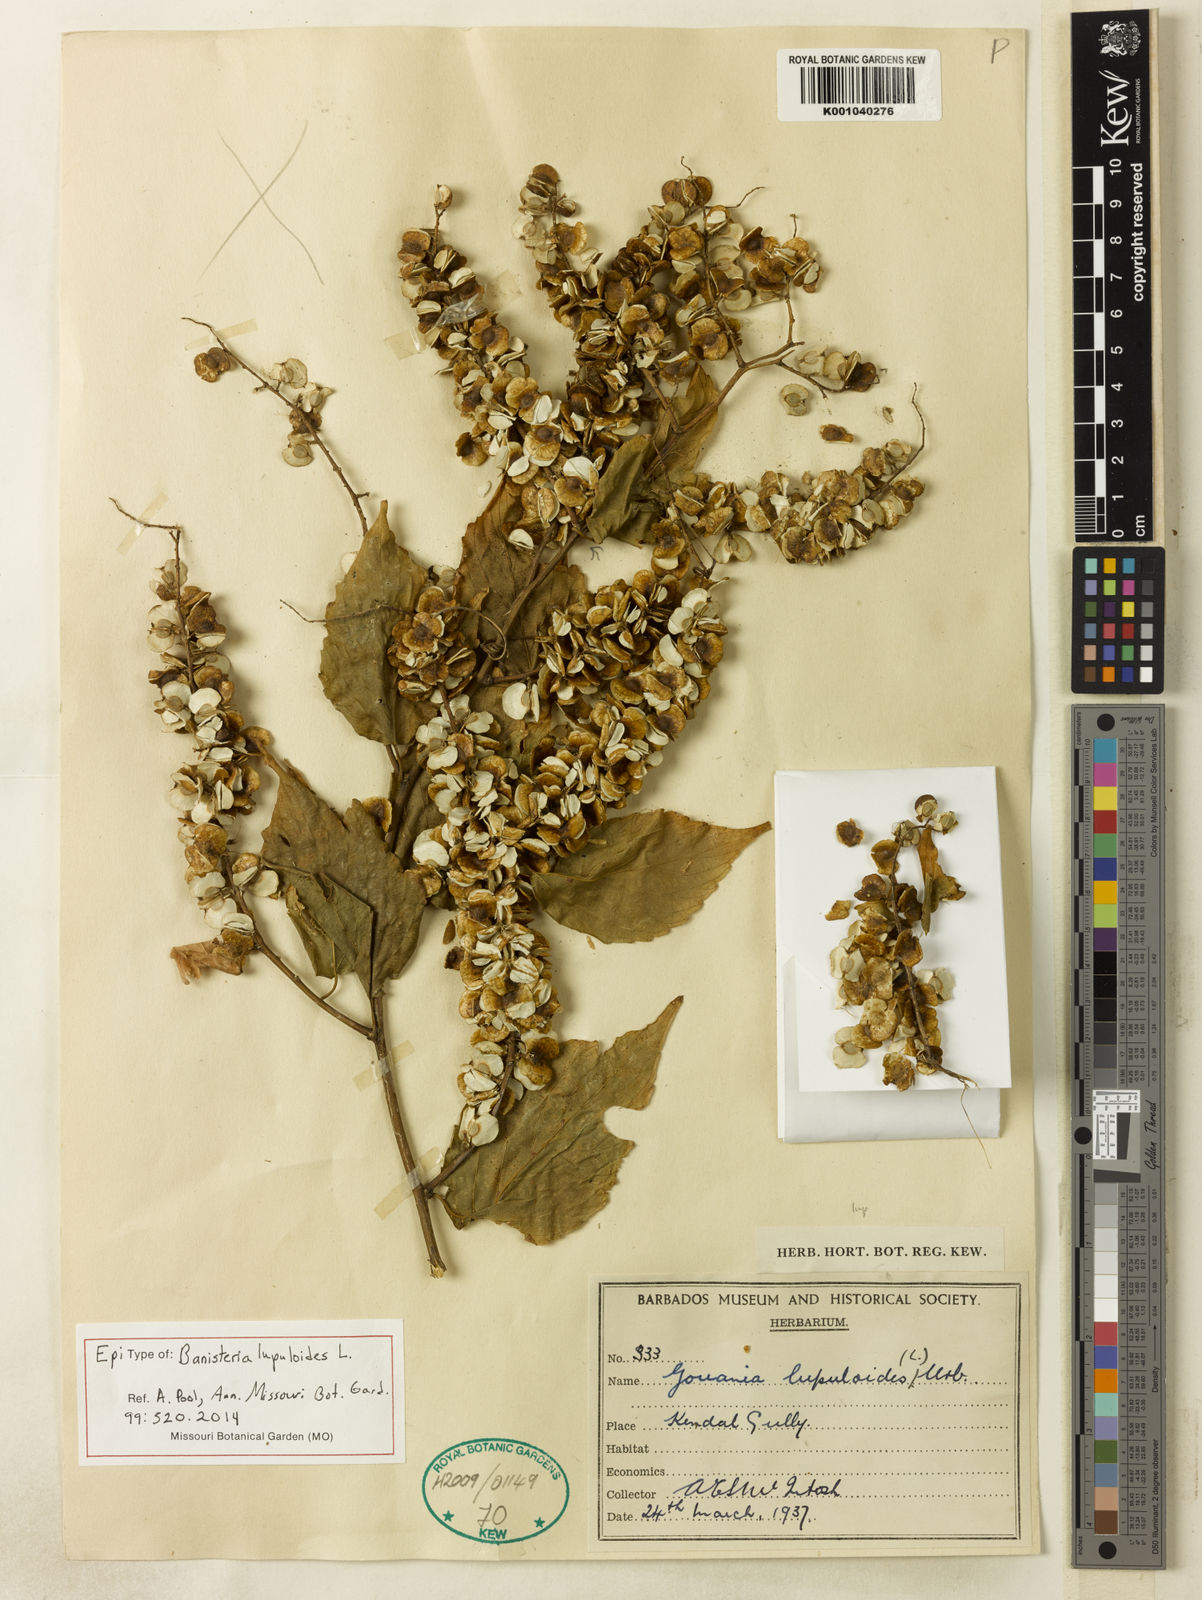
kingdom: Plantae
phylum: Tracheophyta
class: Magnoliopsida
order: Rosales
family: Rhamnaceae
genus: Gouania
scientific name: Gouania lupuloides
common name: Chewstick
